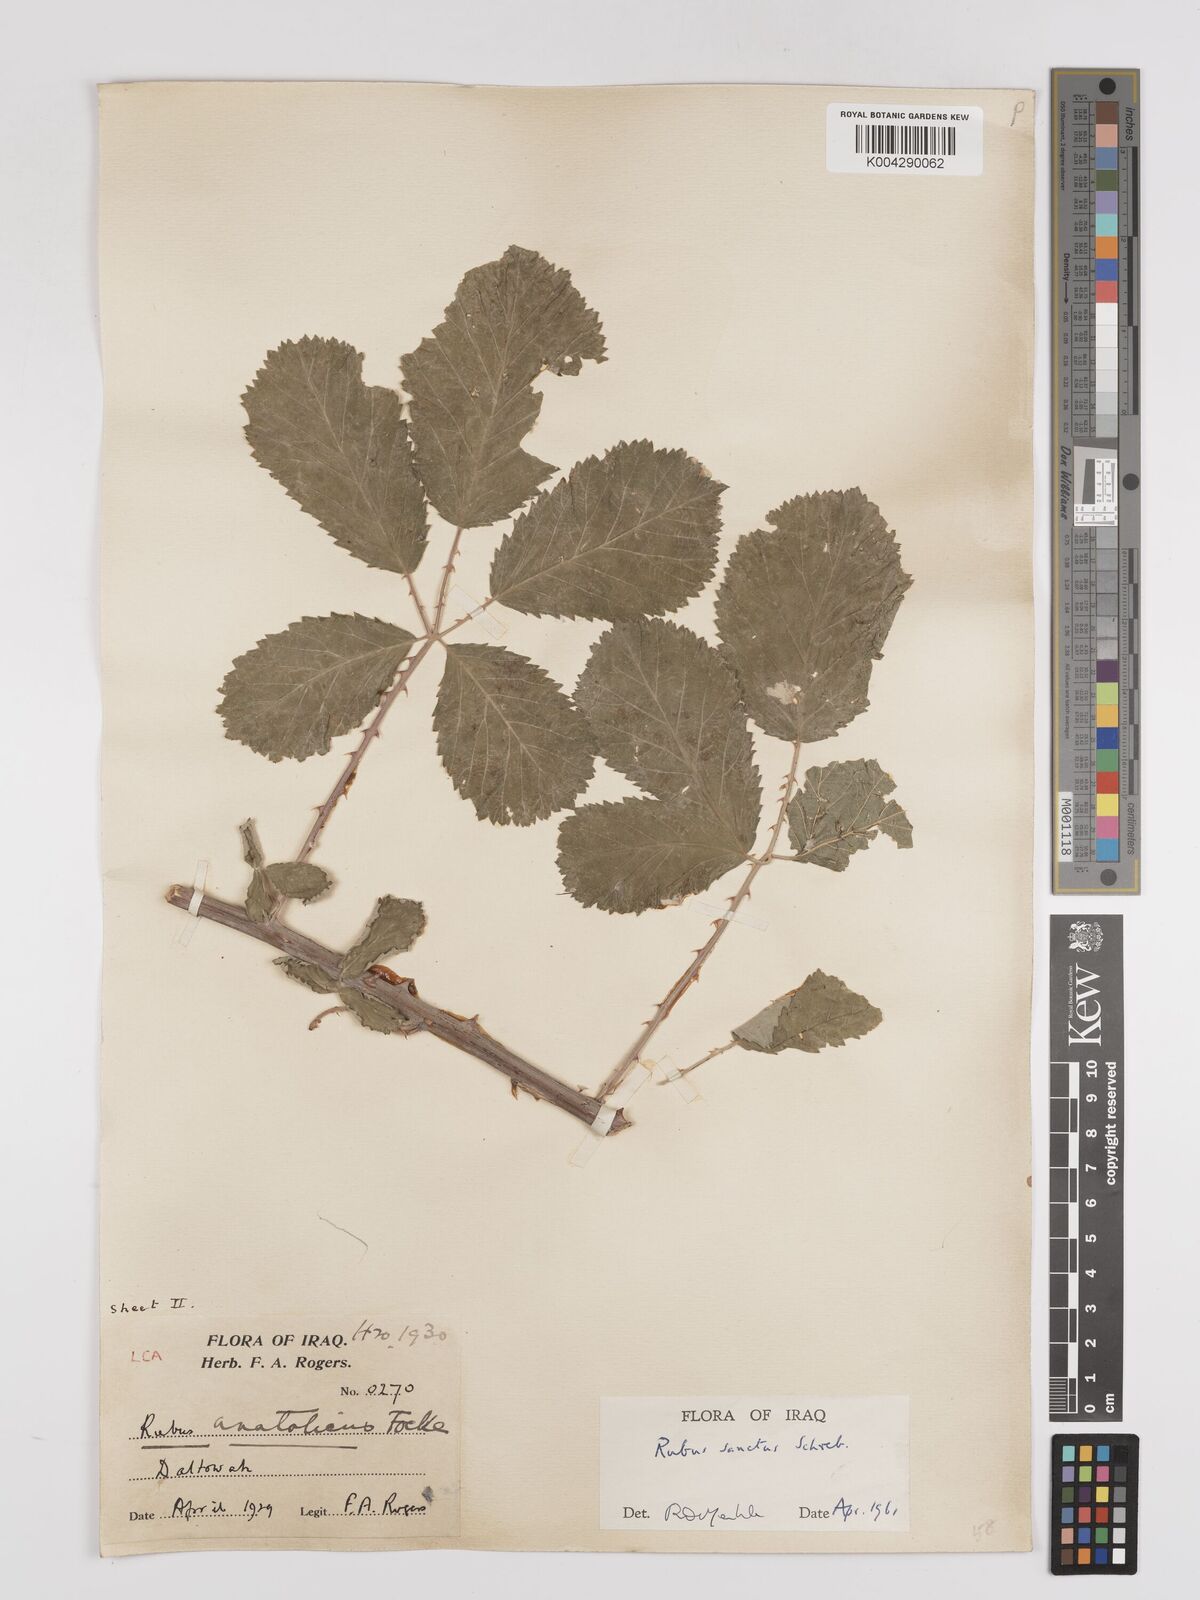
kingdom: Plantae
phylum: Tracheophyta
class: Magnoliopsida
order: Rosales
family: Rosaceae
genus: Rubus
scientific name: Rubus sanctus
